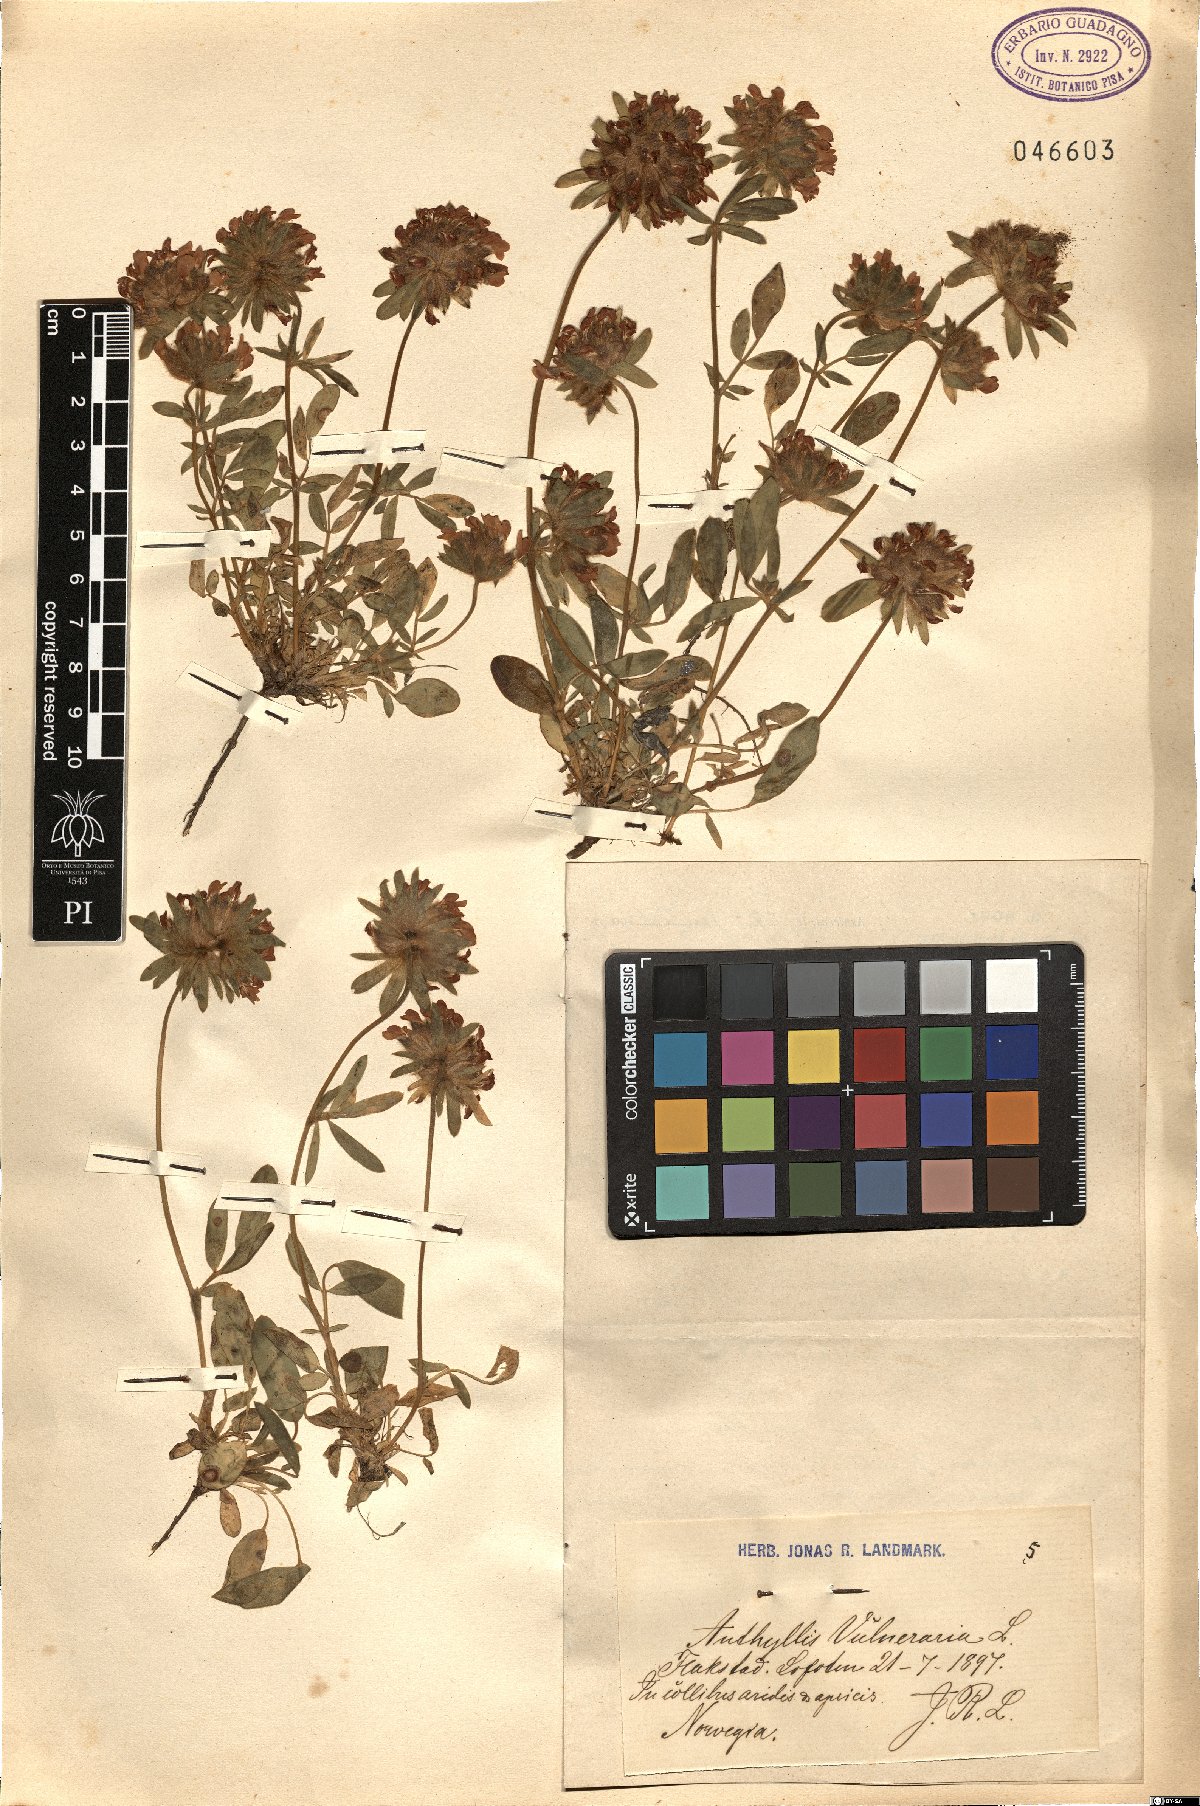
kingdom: Plantae
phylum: Tracheophyta
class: Magnoliopsida
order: Fabales
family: Fabaceae
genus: Anthyllis
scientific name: Anthyllis vulneraria
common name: Kidney vetch
